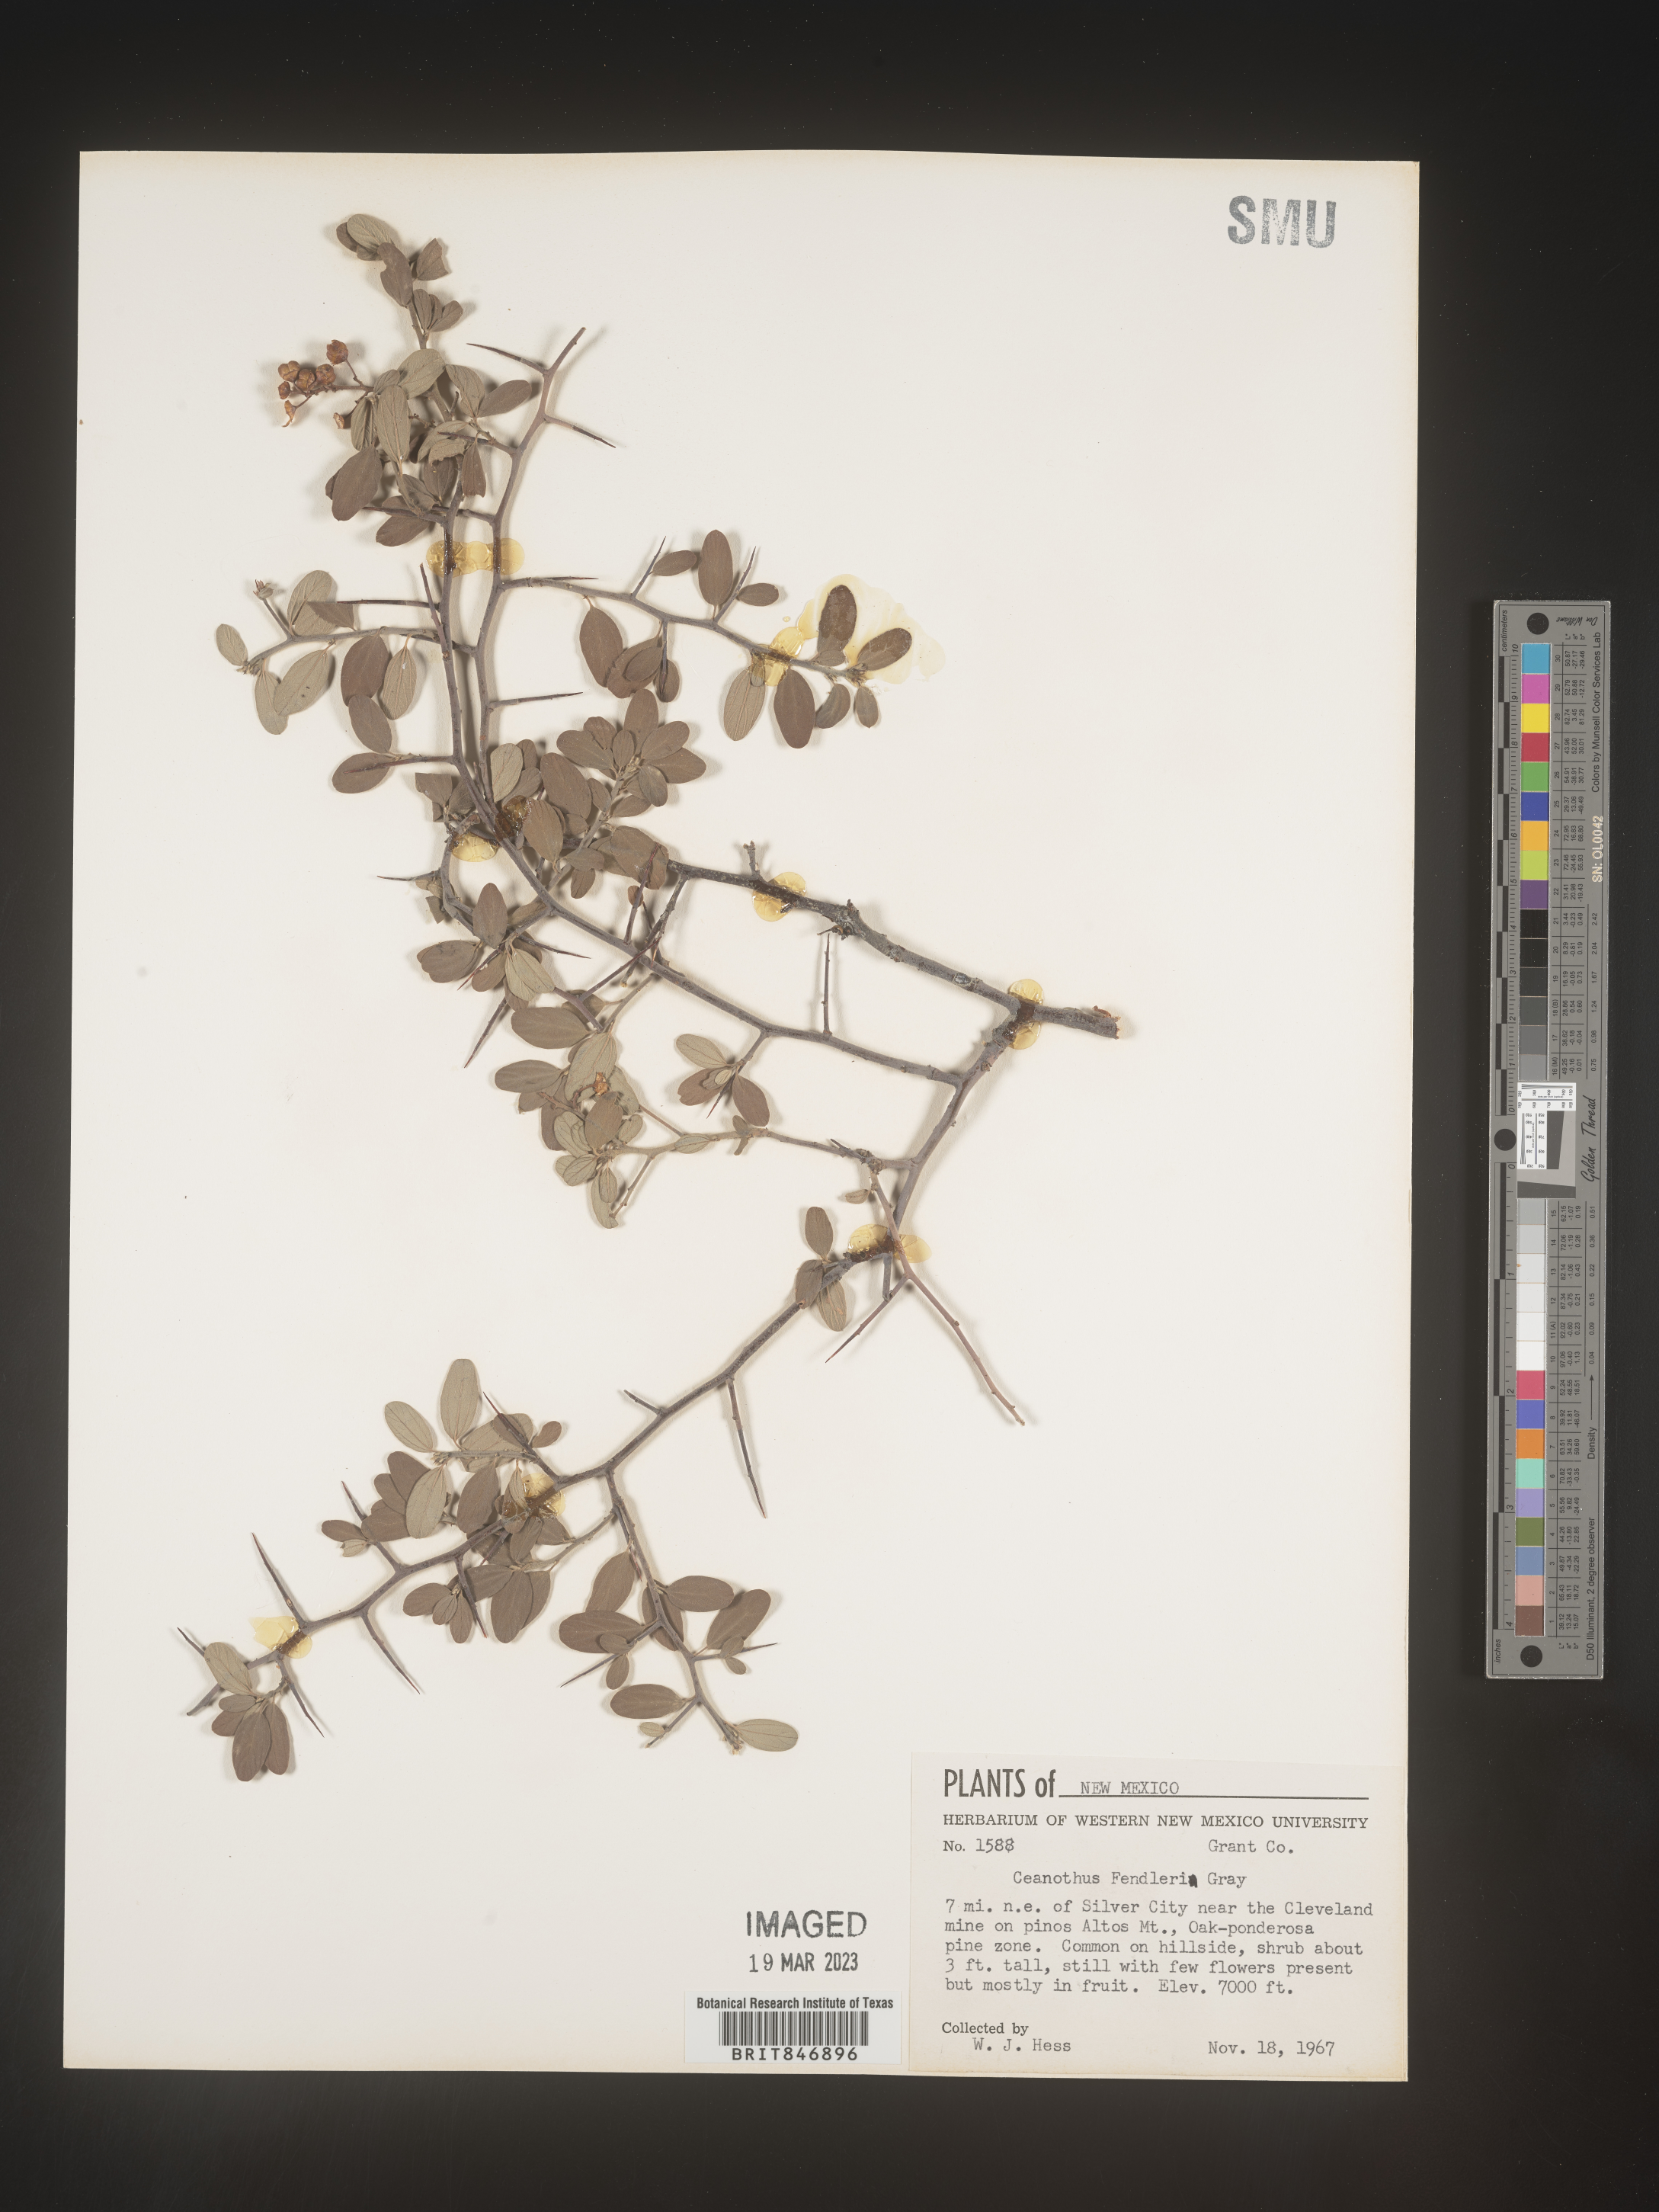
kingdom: Plantae
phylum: Tracheophyta
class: Magnoliopsida
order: Rosales
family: Rhamnaceae
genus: Ceanothus
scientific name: Ceanothus fendleri
